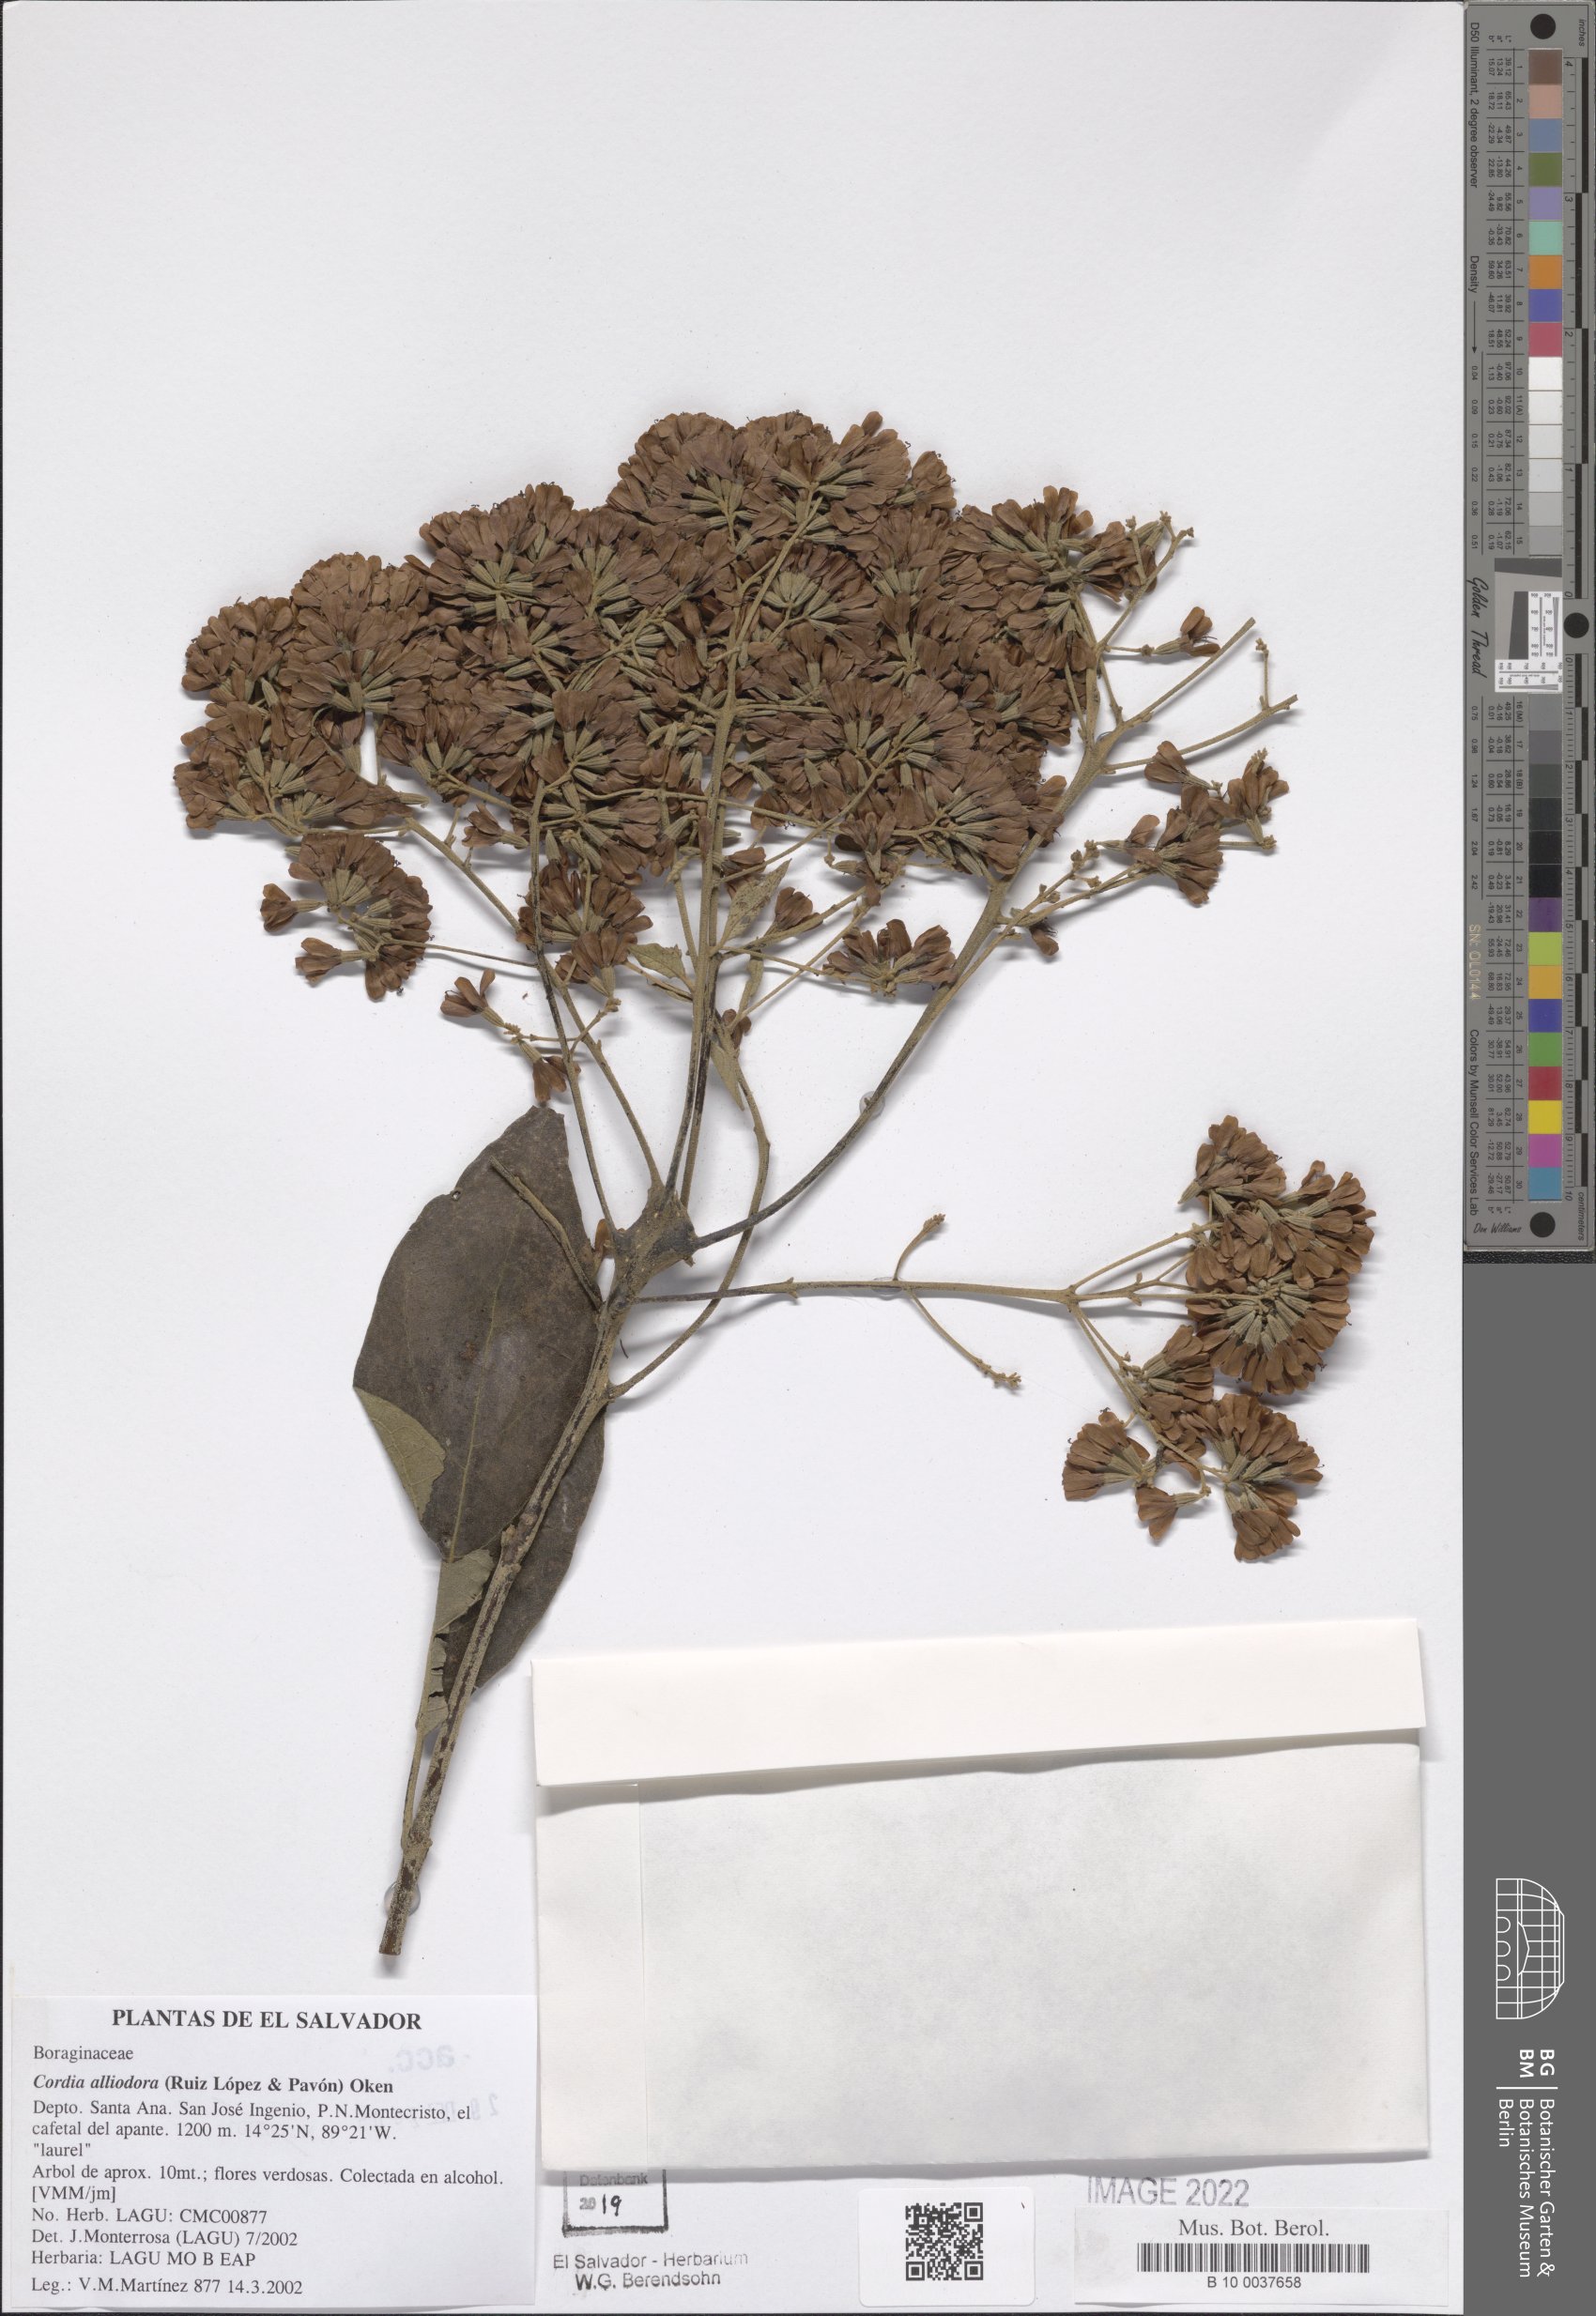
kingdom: Plantae
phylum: Tracheophyta
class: Magnoliopsida
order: Boraginales
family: Cordiaceae
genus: Cordia
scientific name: Cordia alliodora
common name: Spanish elm
